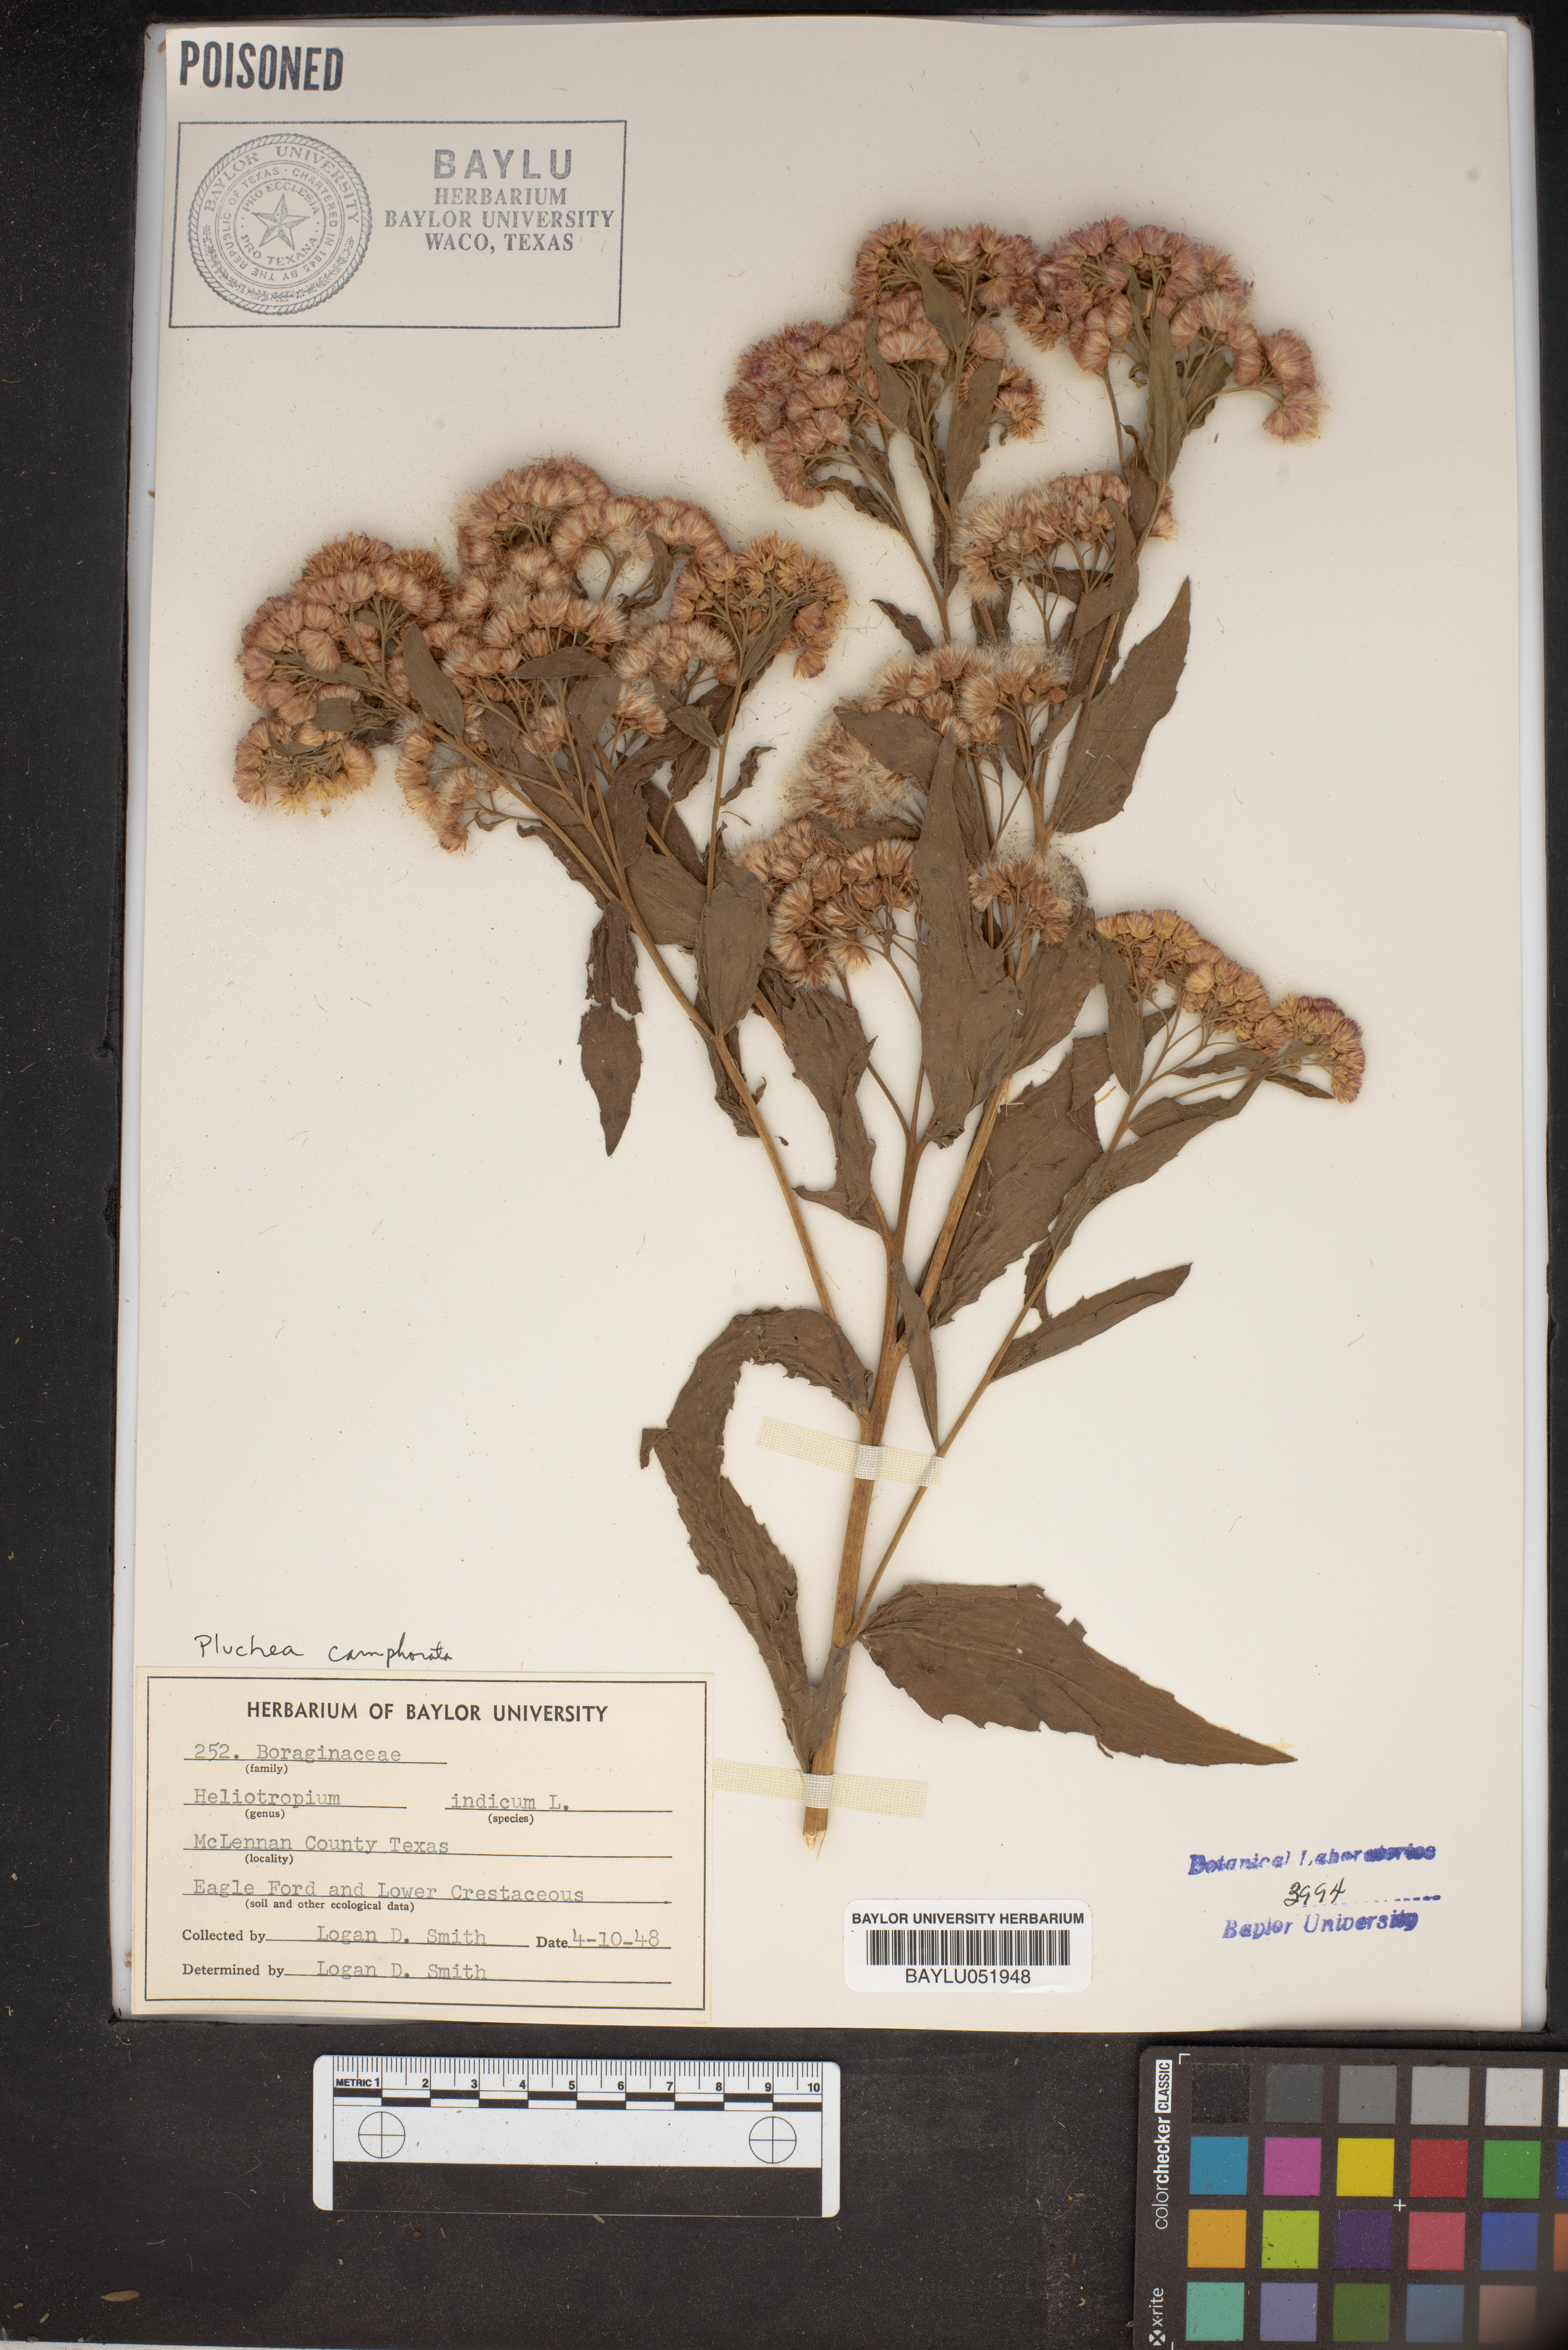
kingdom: Plantae
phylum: Tracheophyta
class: Magnoliopsida
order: Boraginales
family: Heliotropiaceae
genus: Heliotropium
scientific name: Heliotropium indicum
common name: Indian heliotrope
